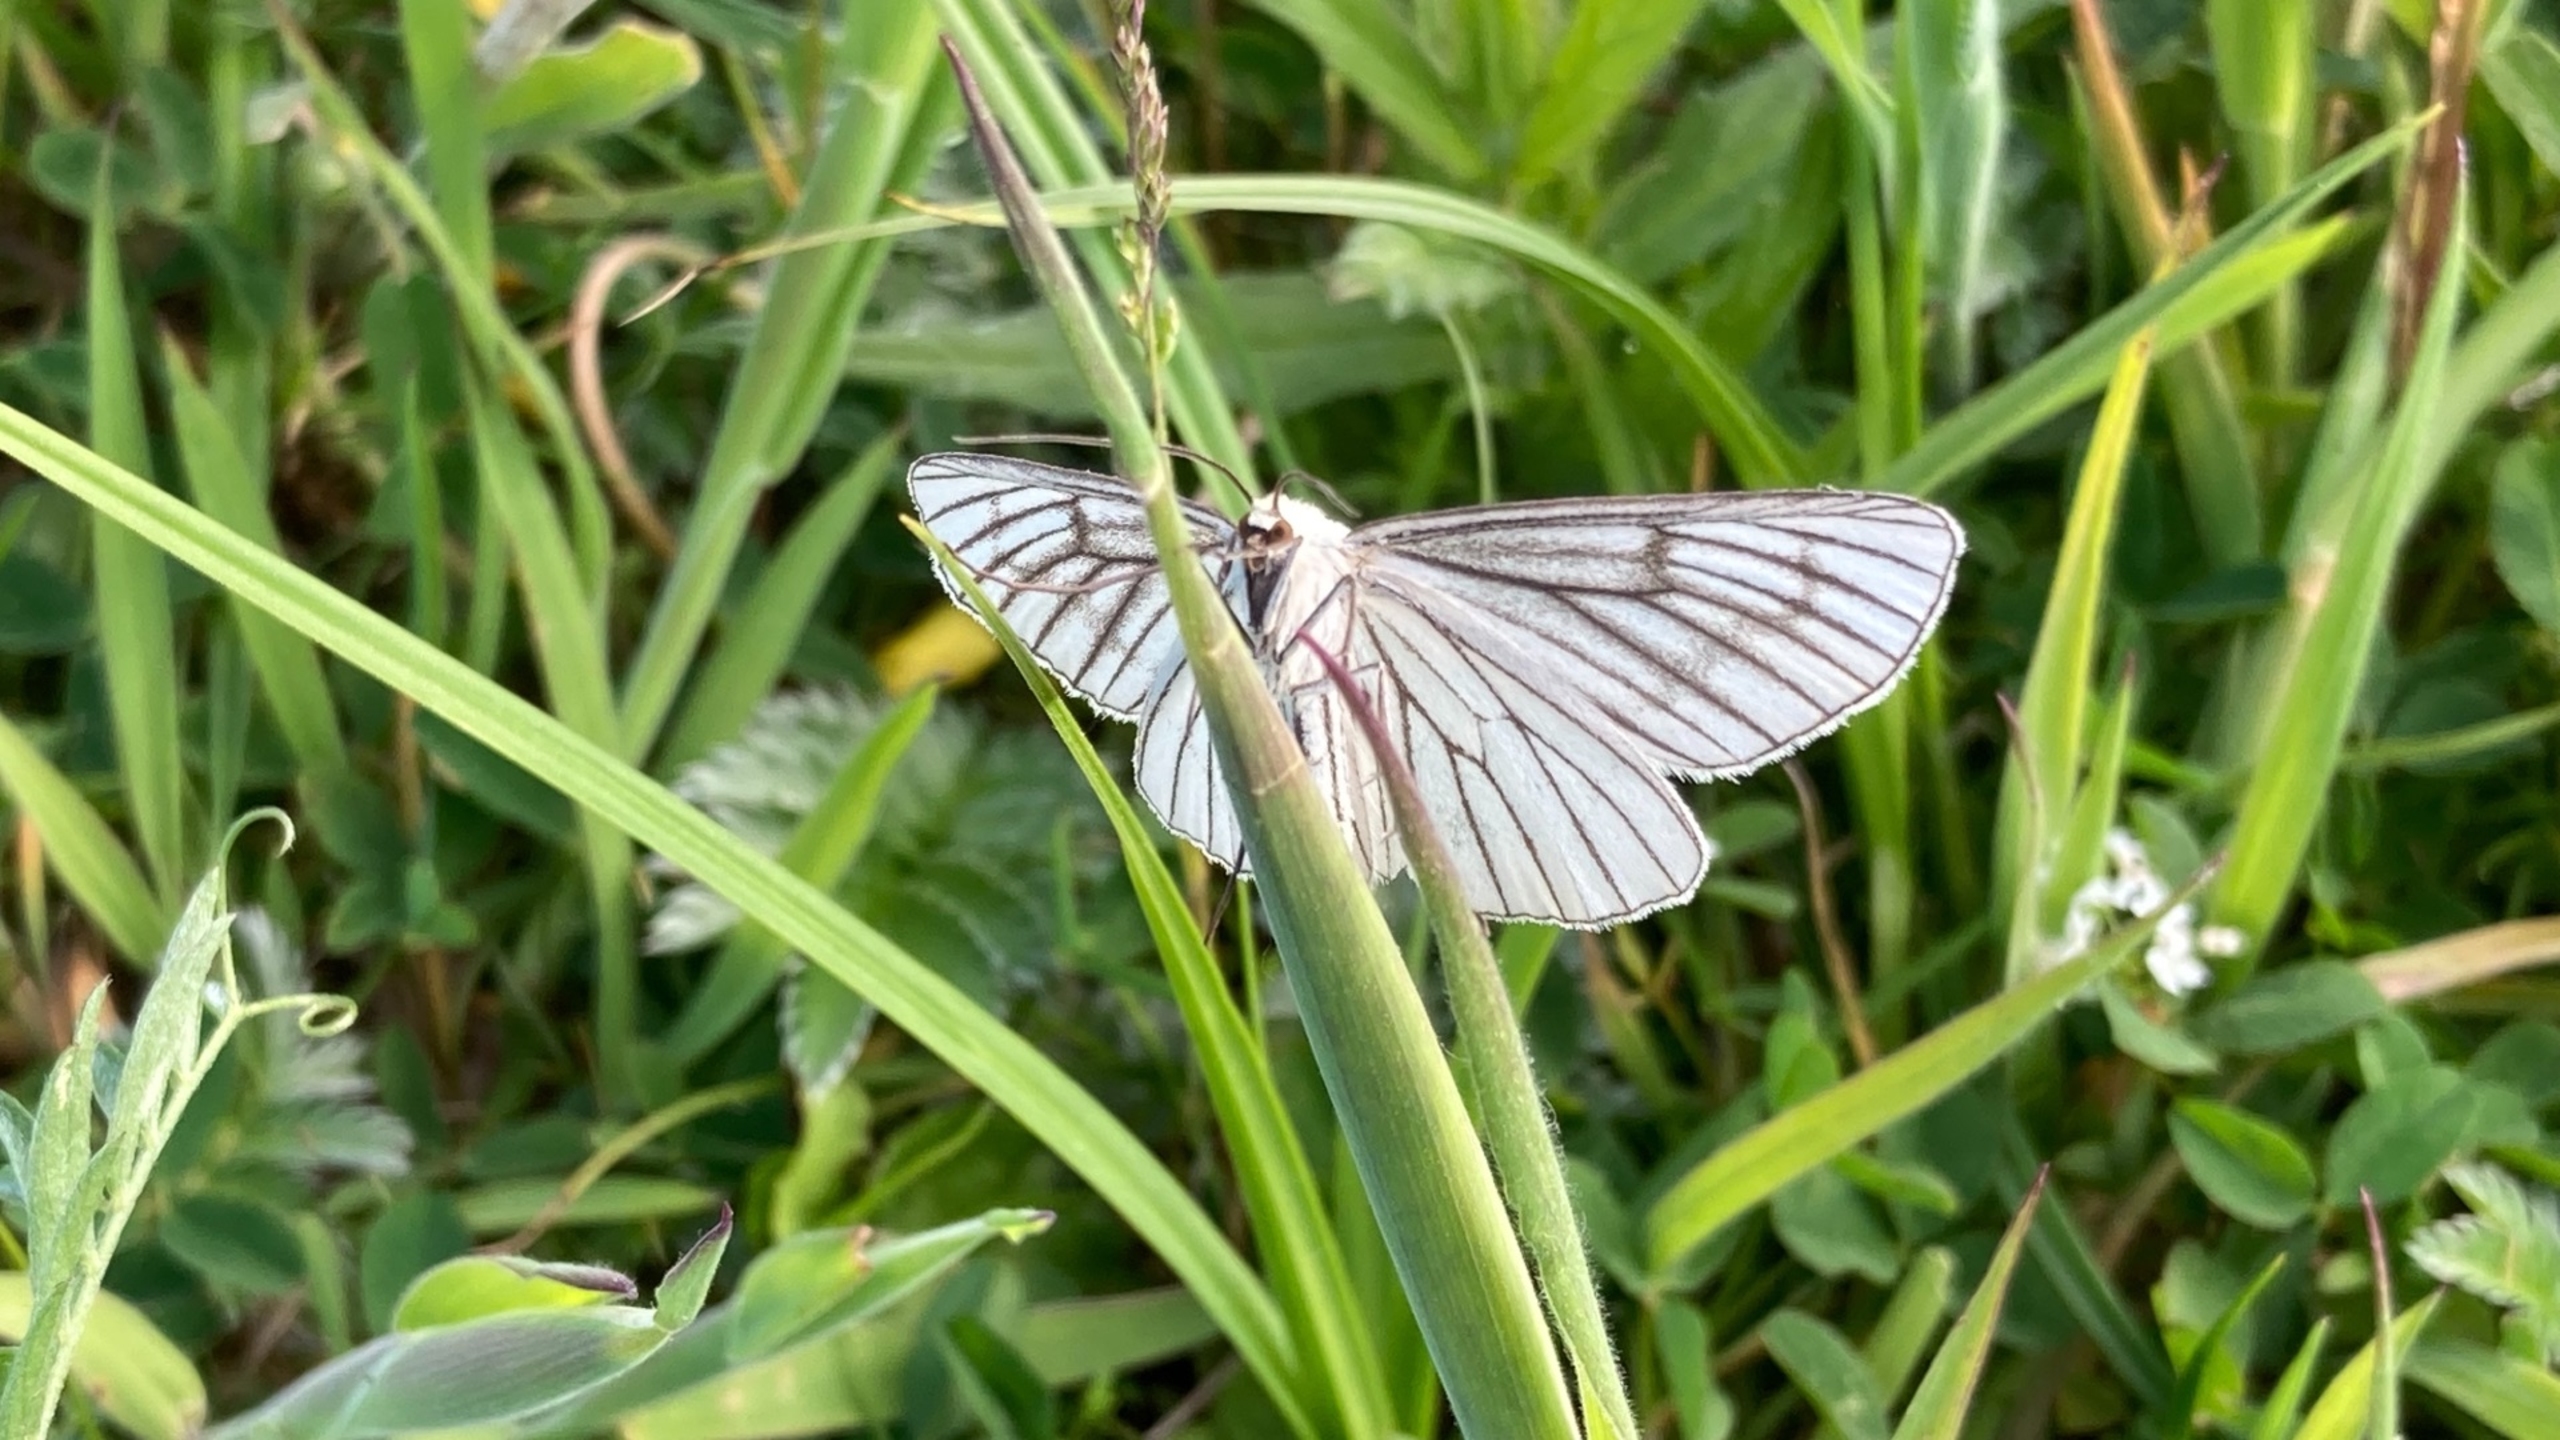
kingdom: Animalia
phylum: Arthropoda
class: Insecta
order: Lepidoptera
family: Geometridae
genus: Siona
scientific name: Siona lineata
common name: Hvidvingemåler
